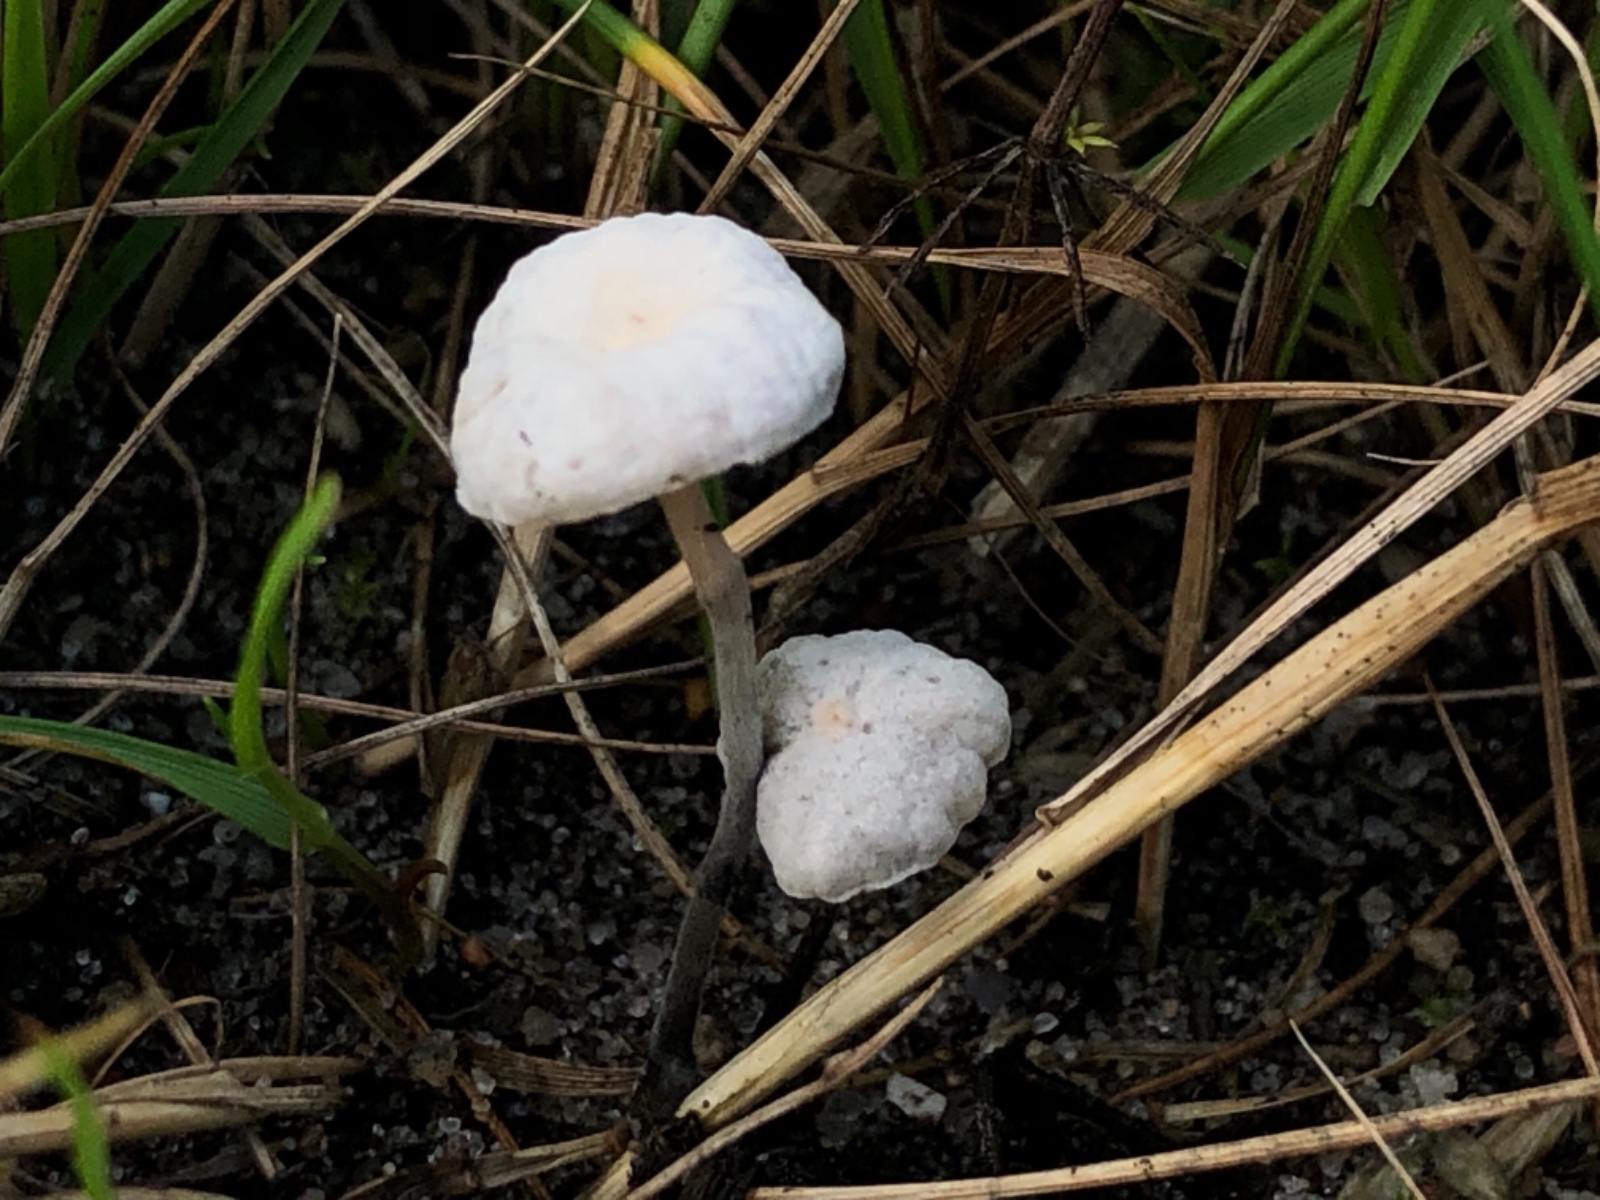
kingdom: Fungi
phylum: Basidiomycota
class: Agaricomycetes
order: Agaricales
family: Omphalotaceae
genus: Marasmiellus
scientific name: Marasmiellus tricolor
